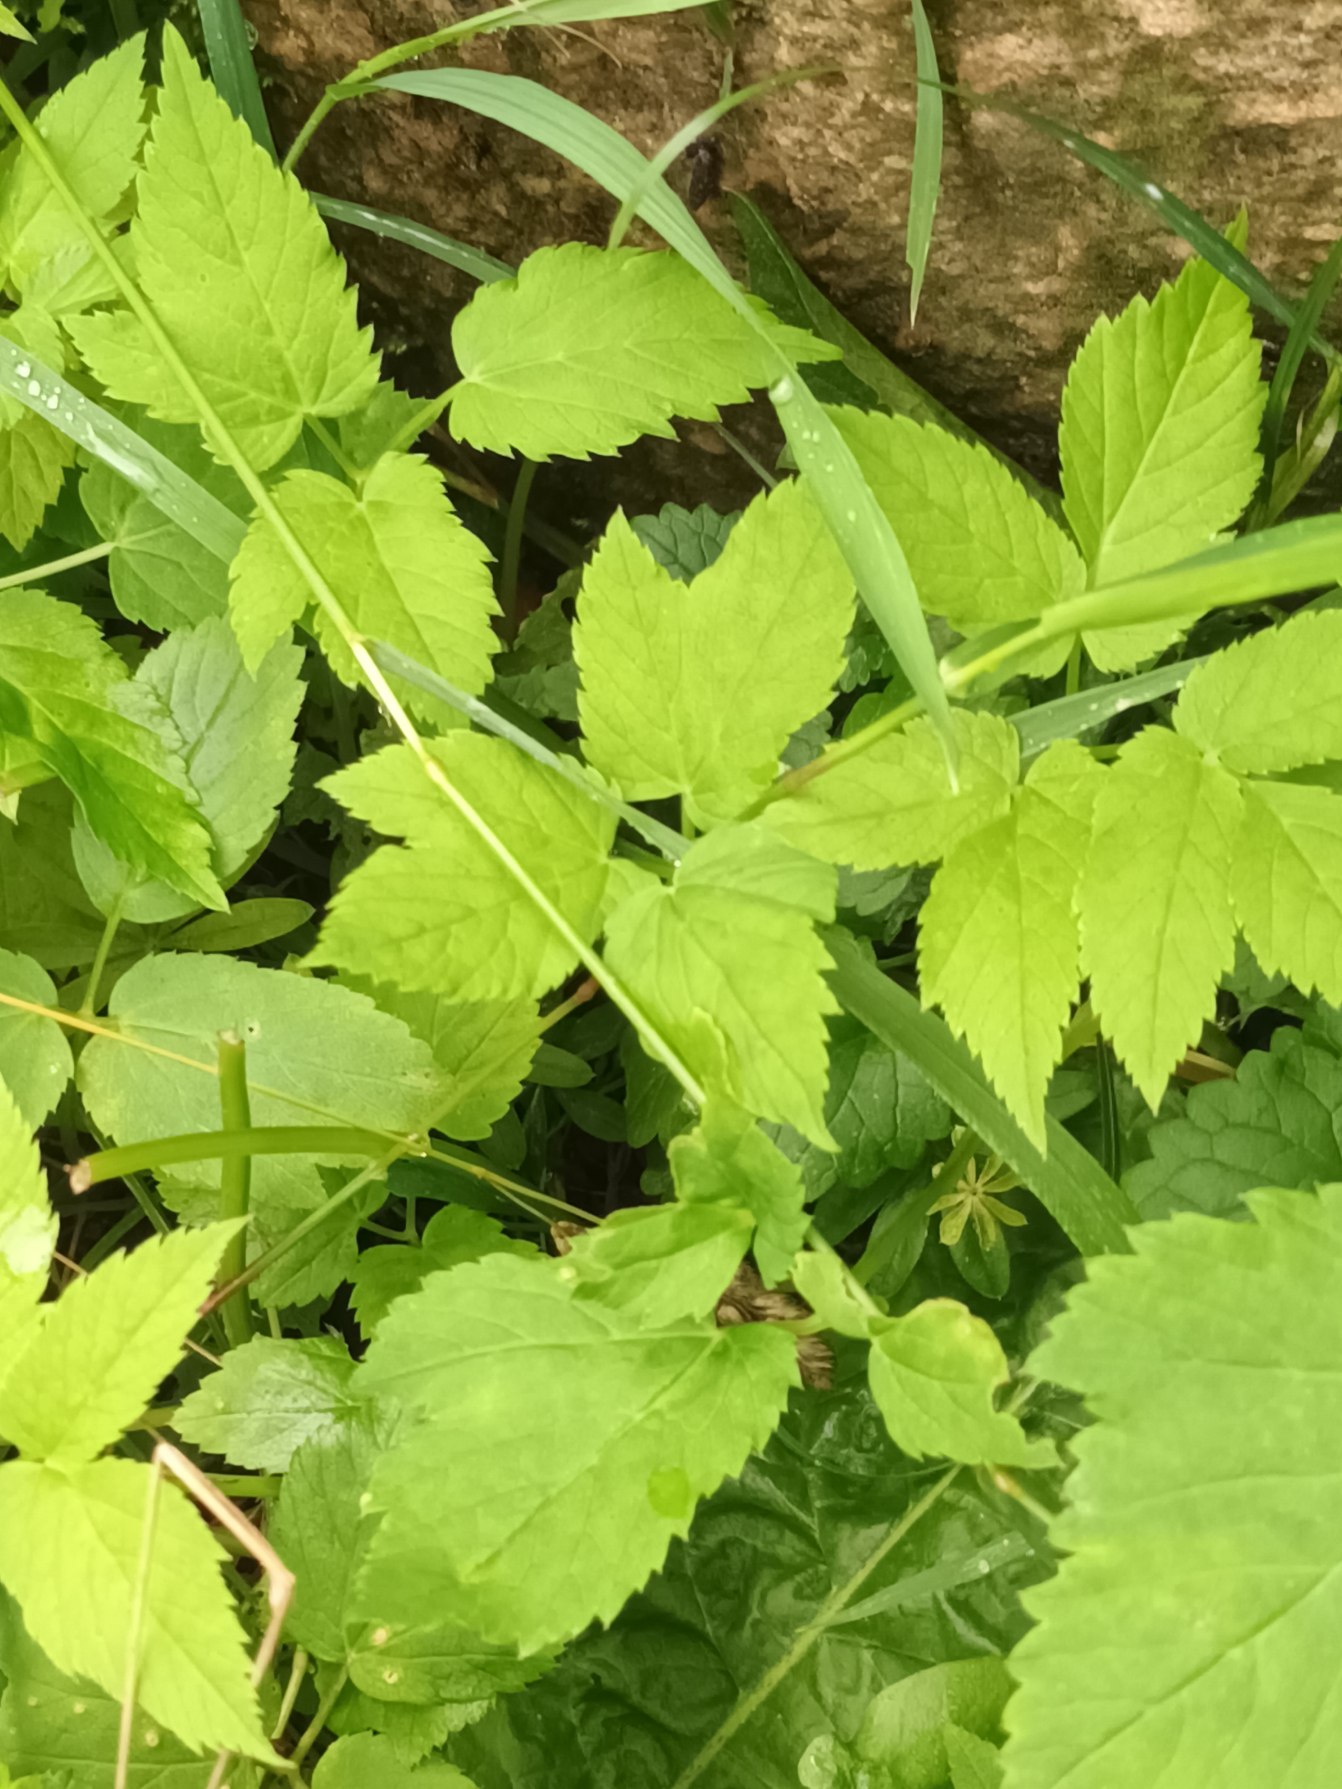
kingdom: Plantae
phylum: Tracheophyta
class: Magnoliopsida
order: Apiales
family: Apiaceae
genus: Aegopodium
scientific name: Aegopodium podagraria
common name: Skvalderkål
